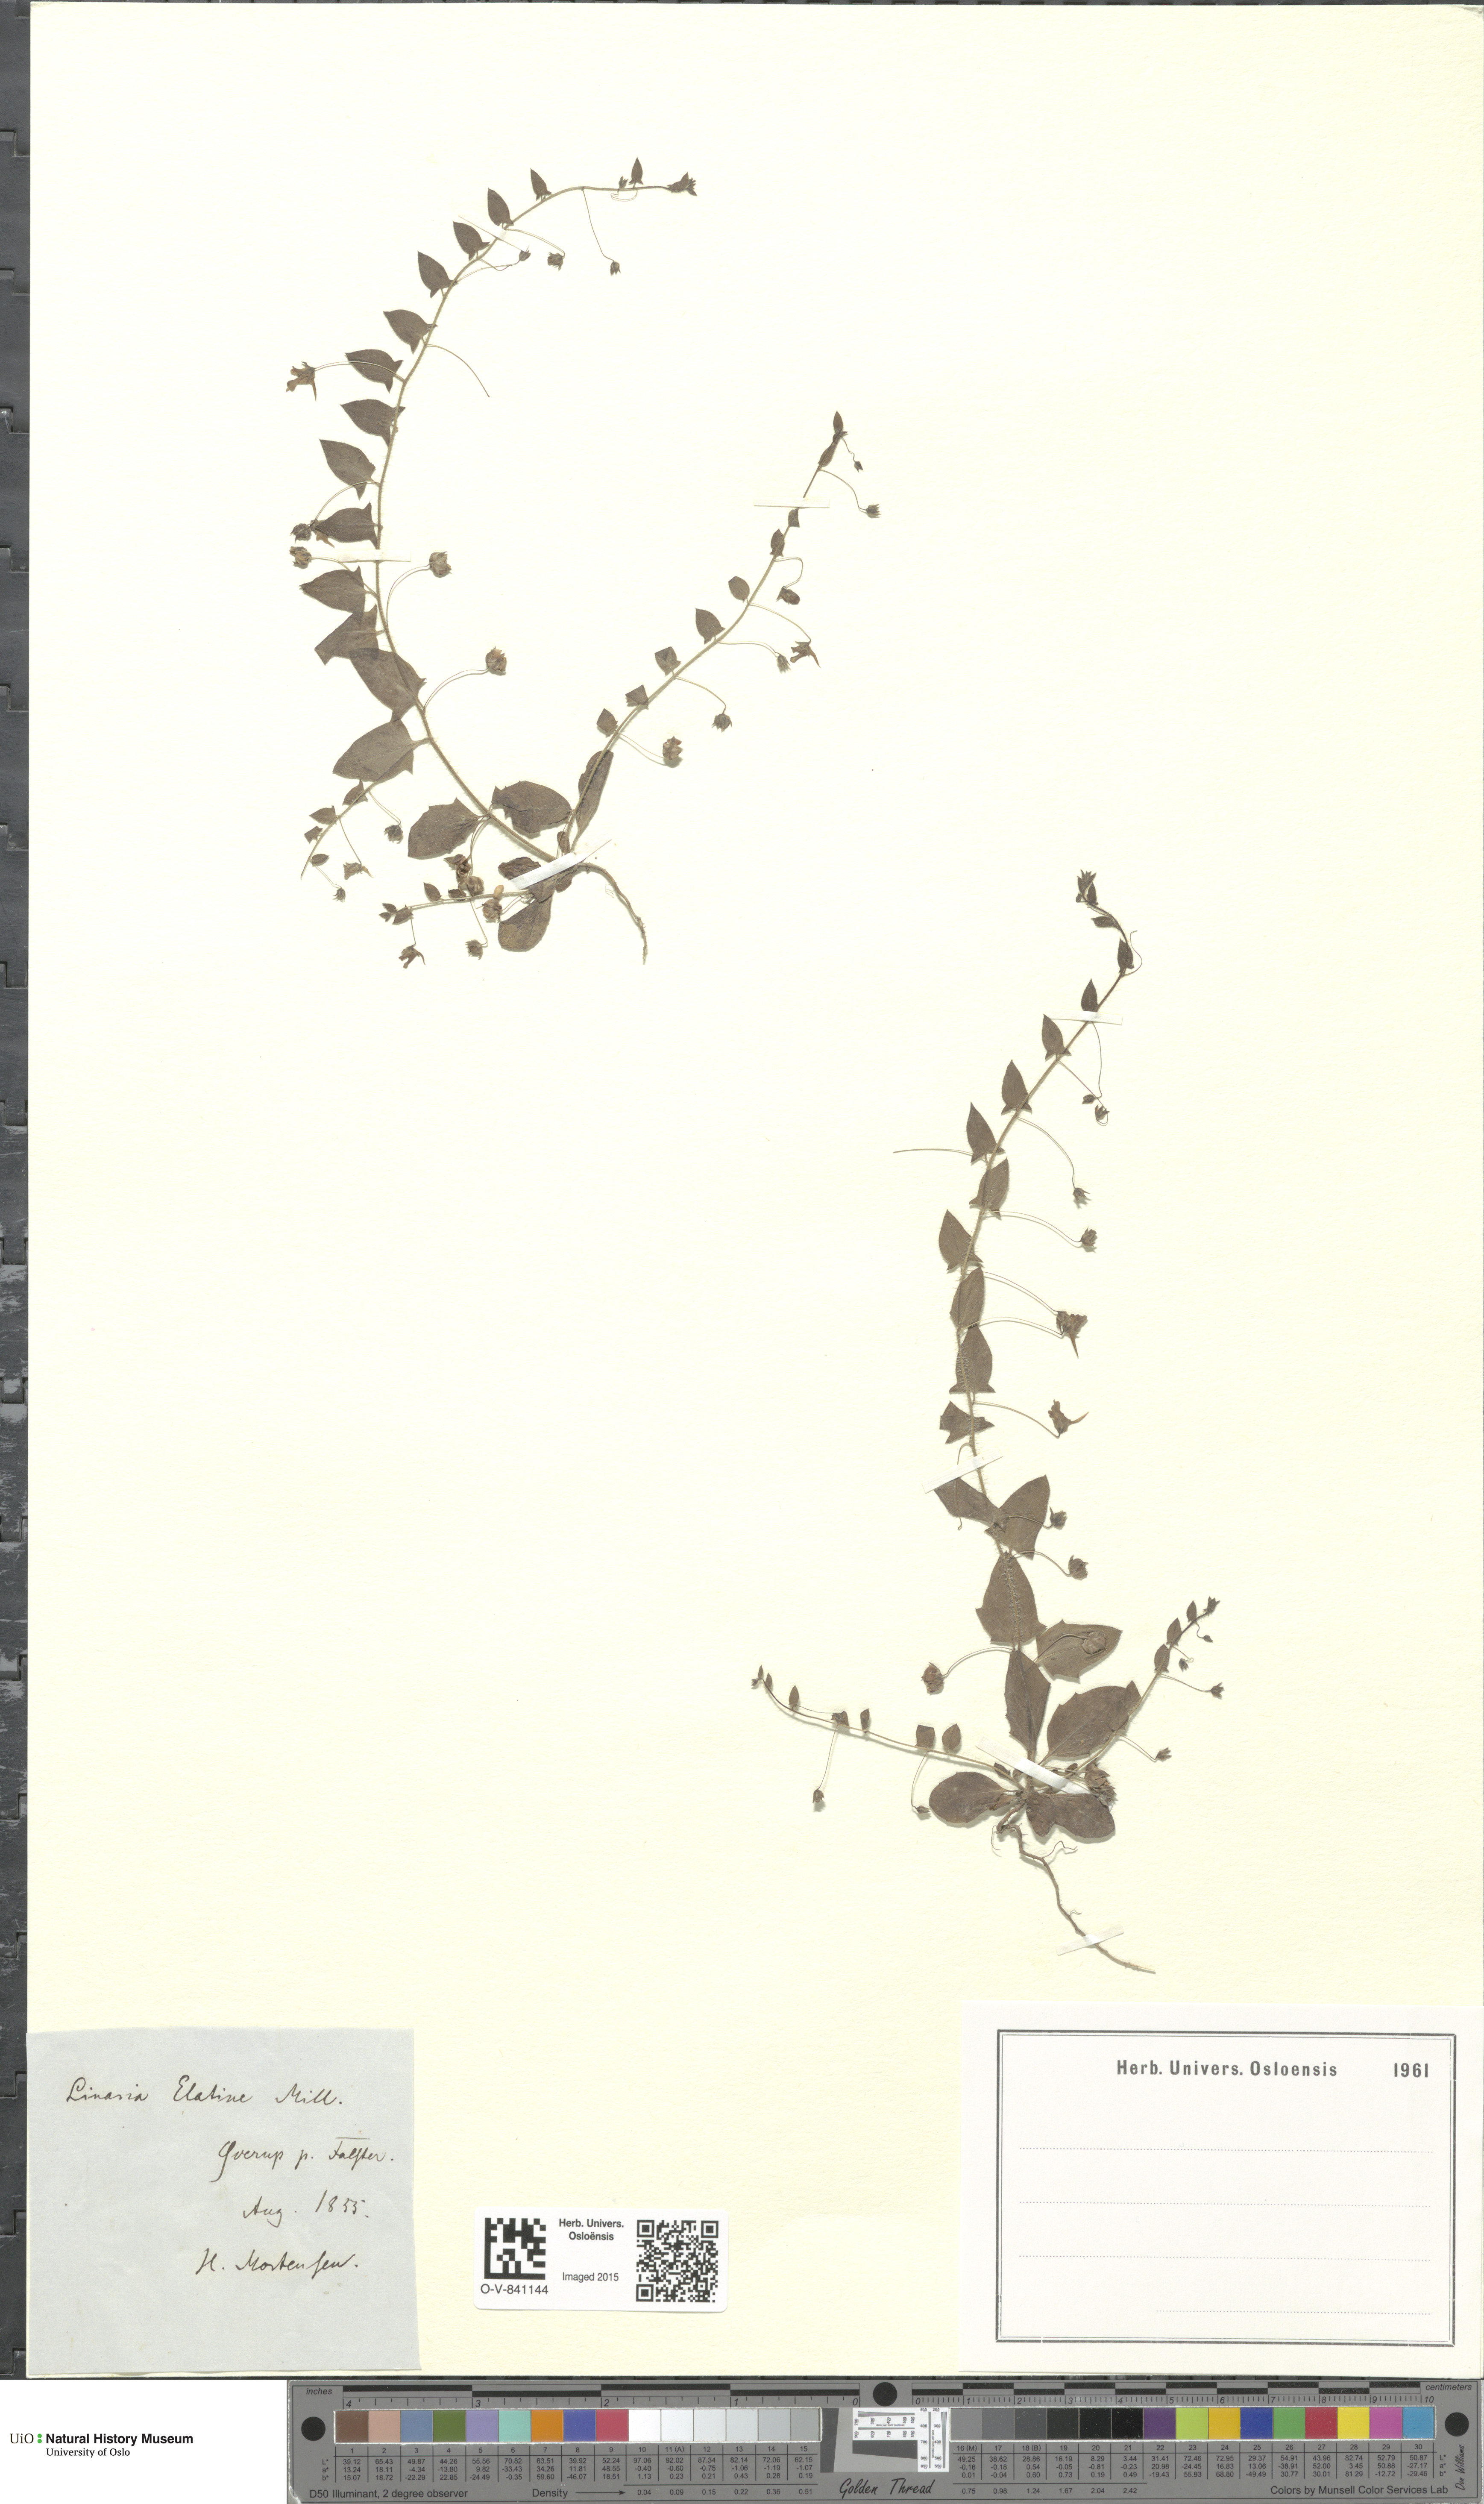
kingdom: Plantae
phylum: Tracheophyta
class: Magnoliopsida
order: Lamiales
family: Plantaginaceae
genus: Kickxia
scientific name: Kickxia elatine
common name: Sharp-leaved fluellen
